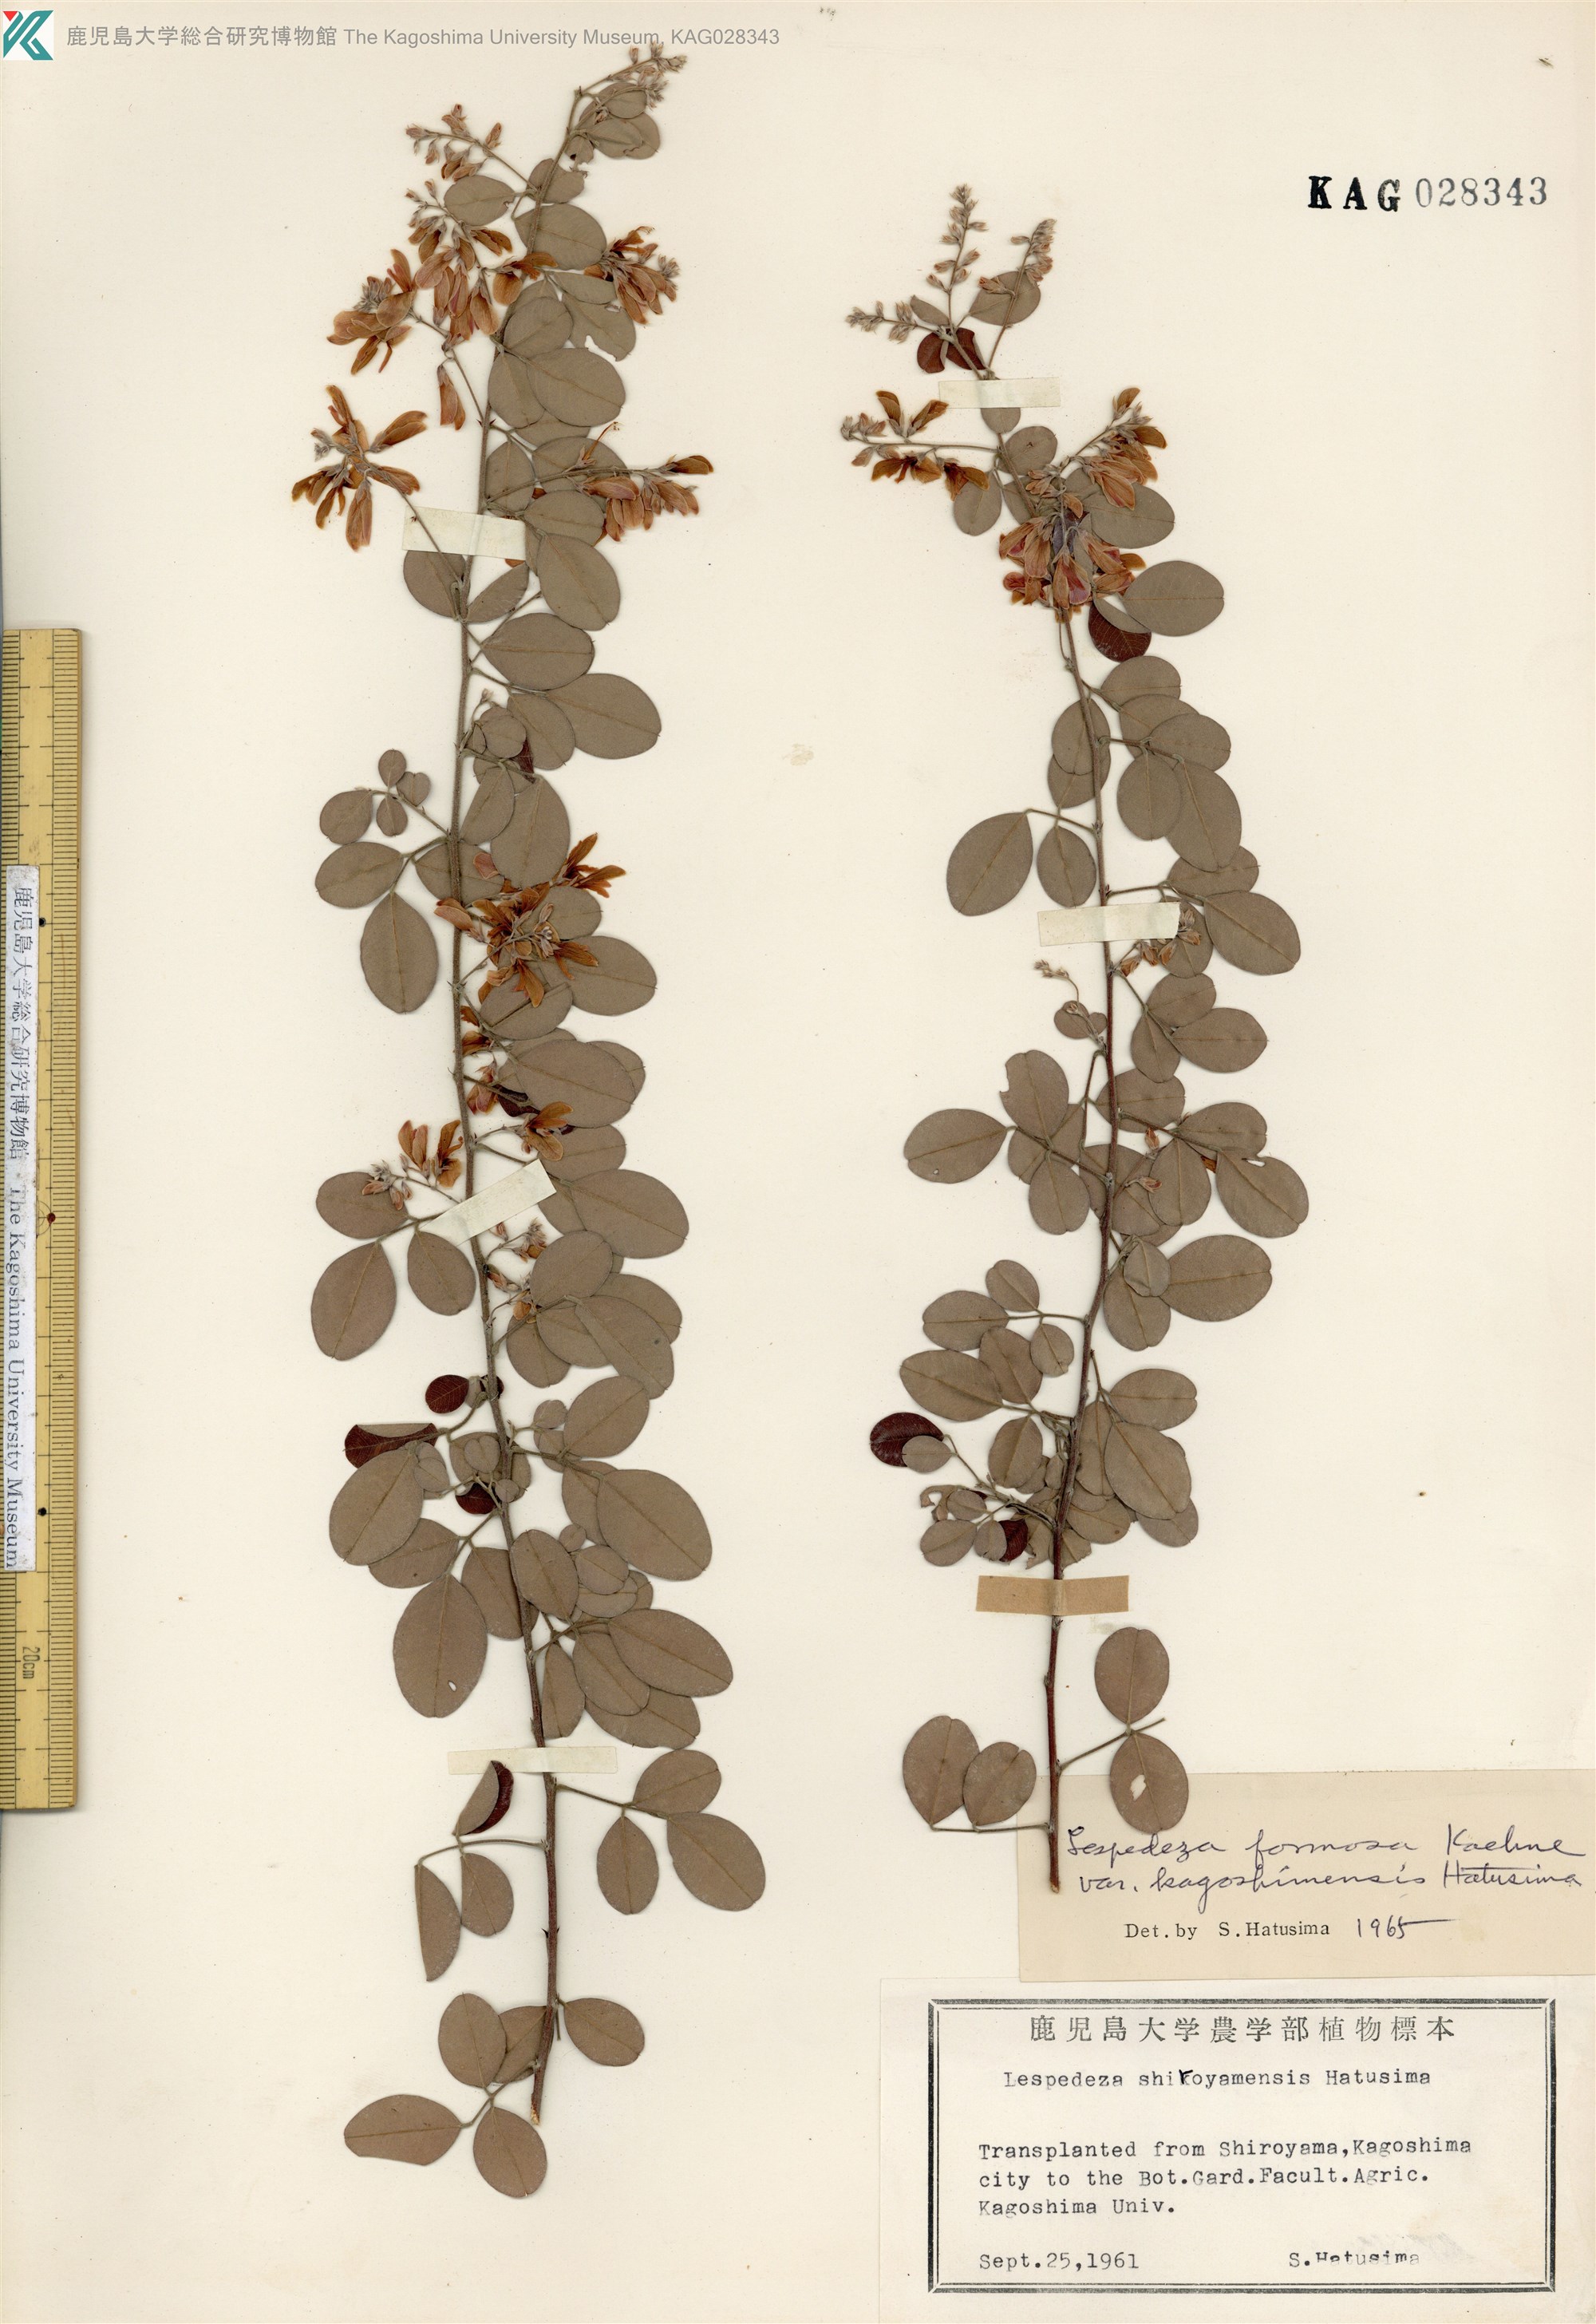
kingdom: Plantae
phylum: Tracheophyta
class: Magnoliopsida
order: Fabales
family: Fabaceae
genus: Lespedeza
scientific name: Lespedeza kagoshimensis
